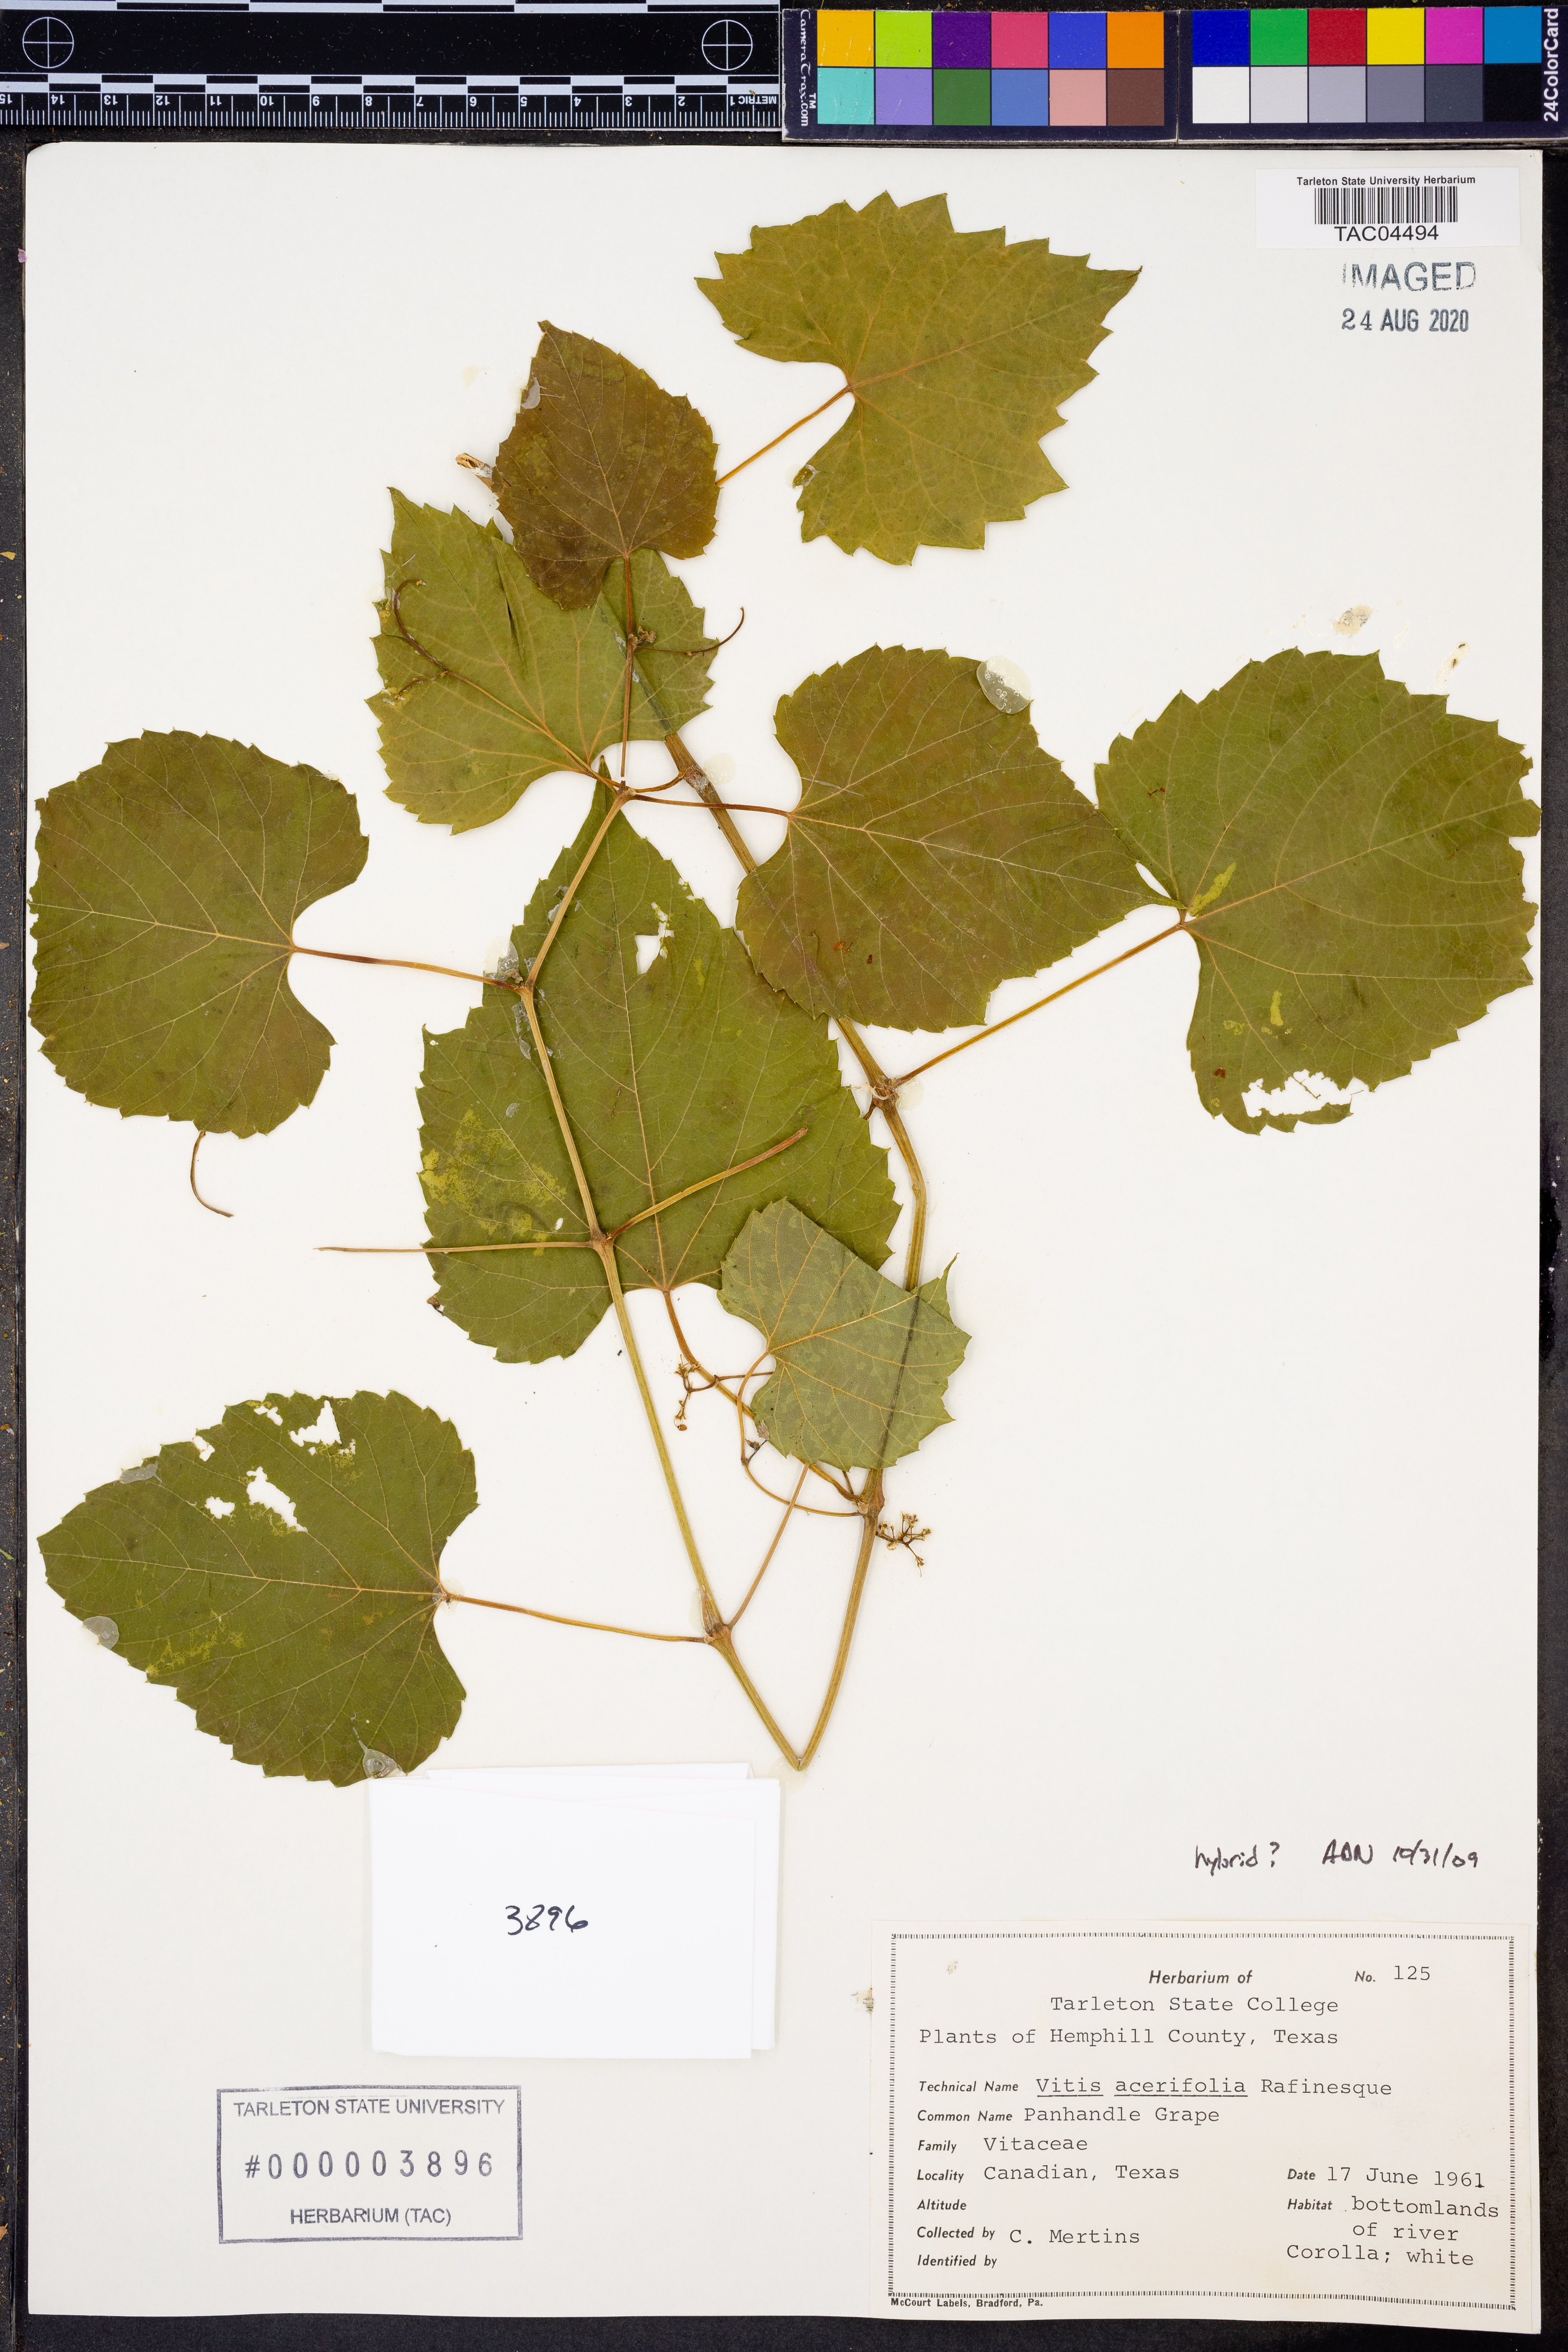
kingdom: Plantae
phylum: Tracheophyta
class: Magnoliopsida
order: Vitales
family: Vitaceae
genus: Vitis
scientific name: Vitis acerifolia
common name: Bush grape
